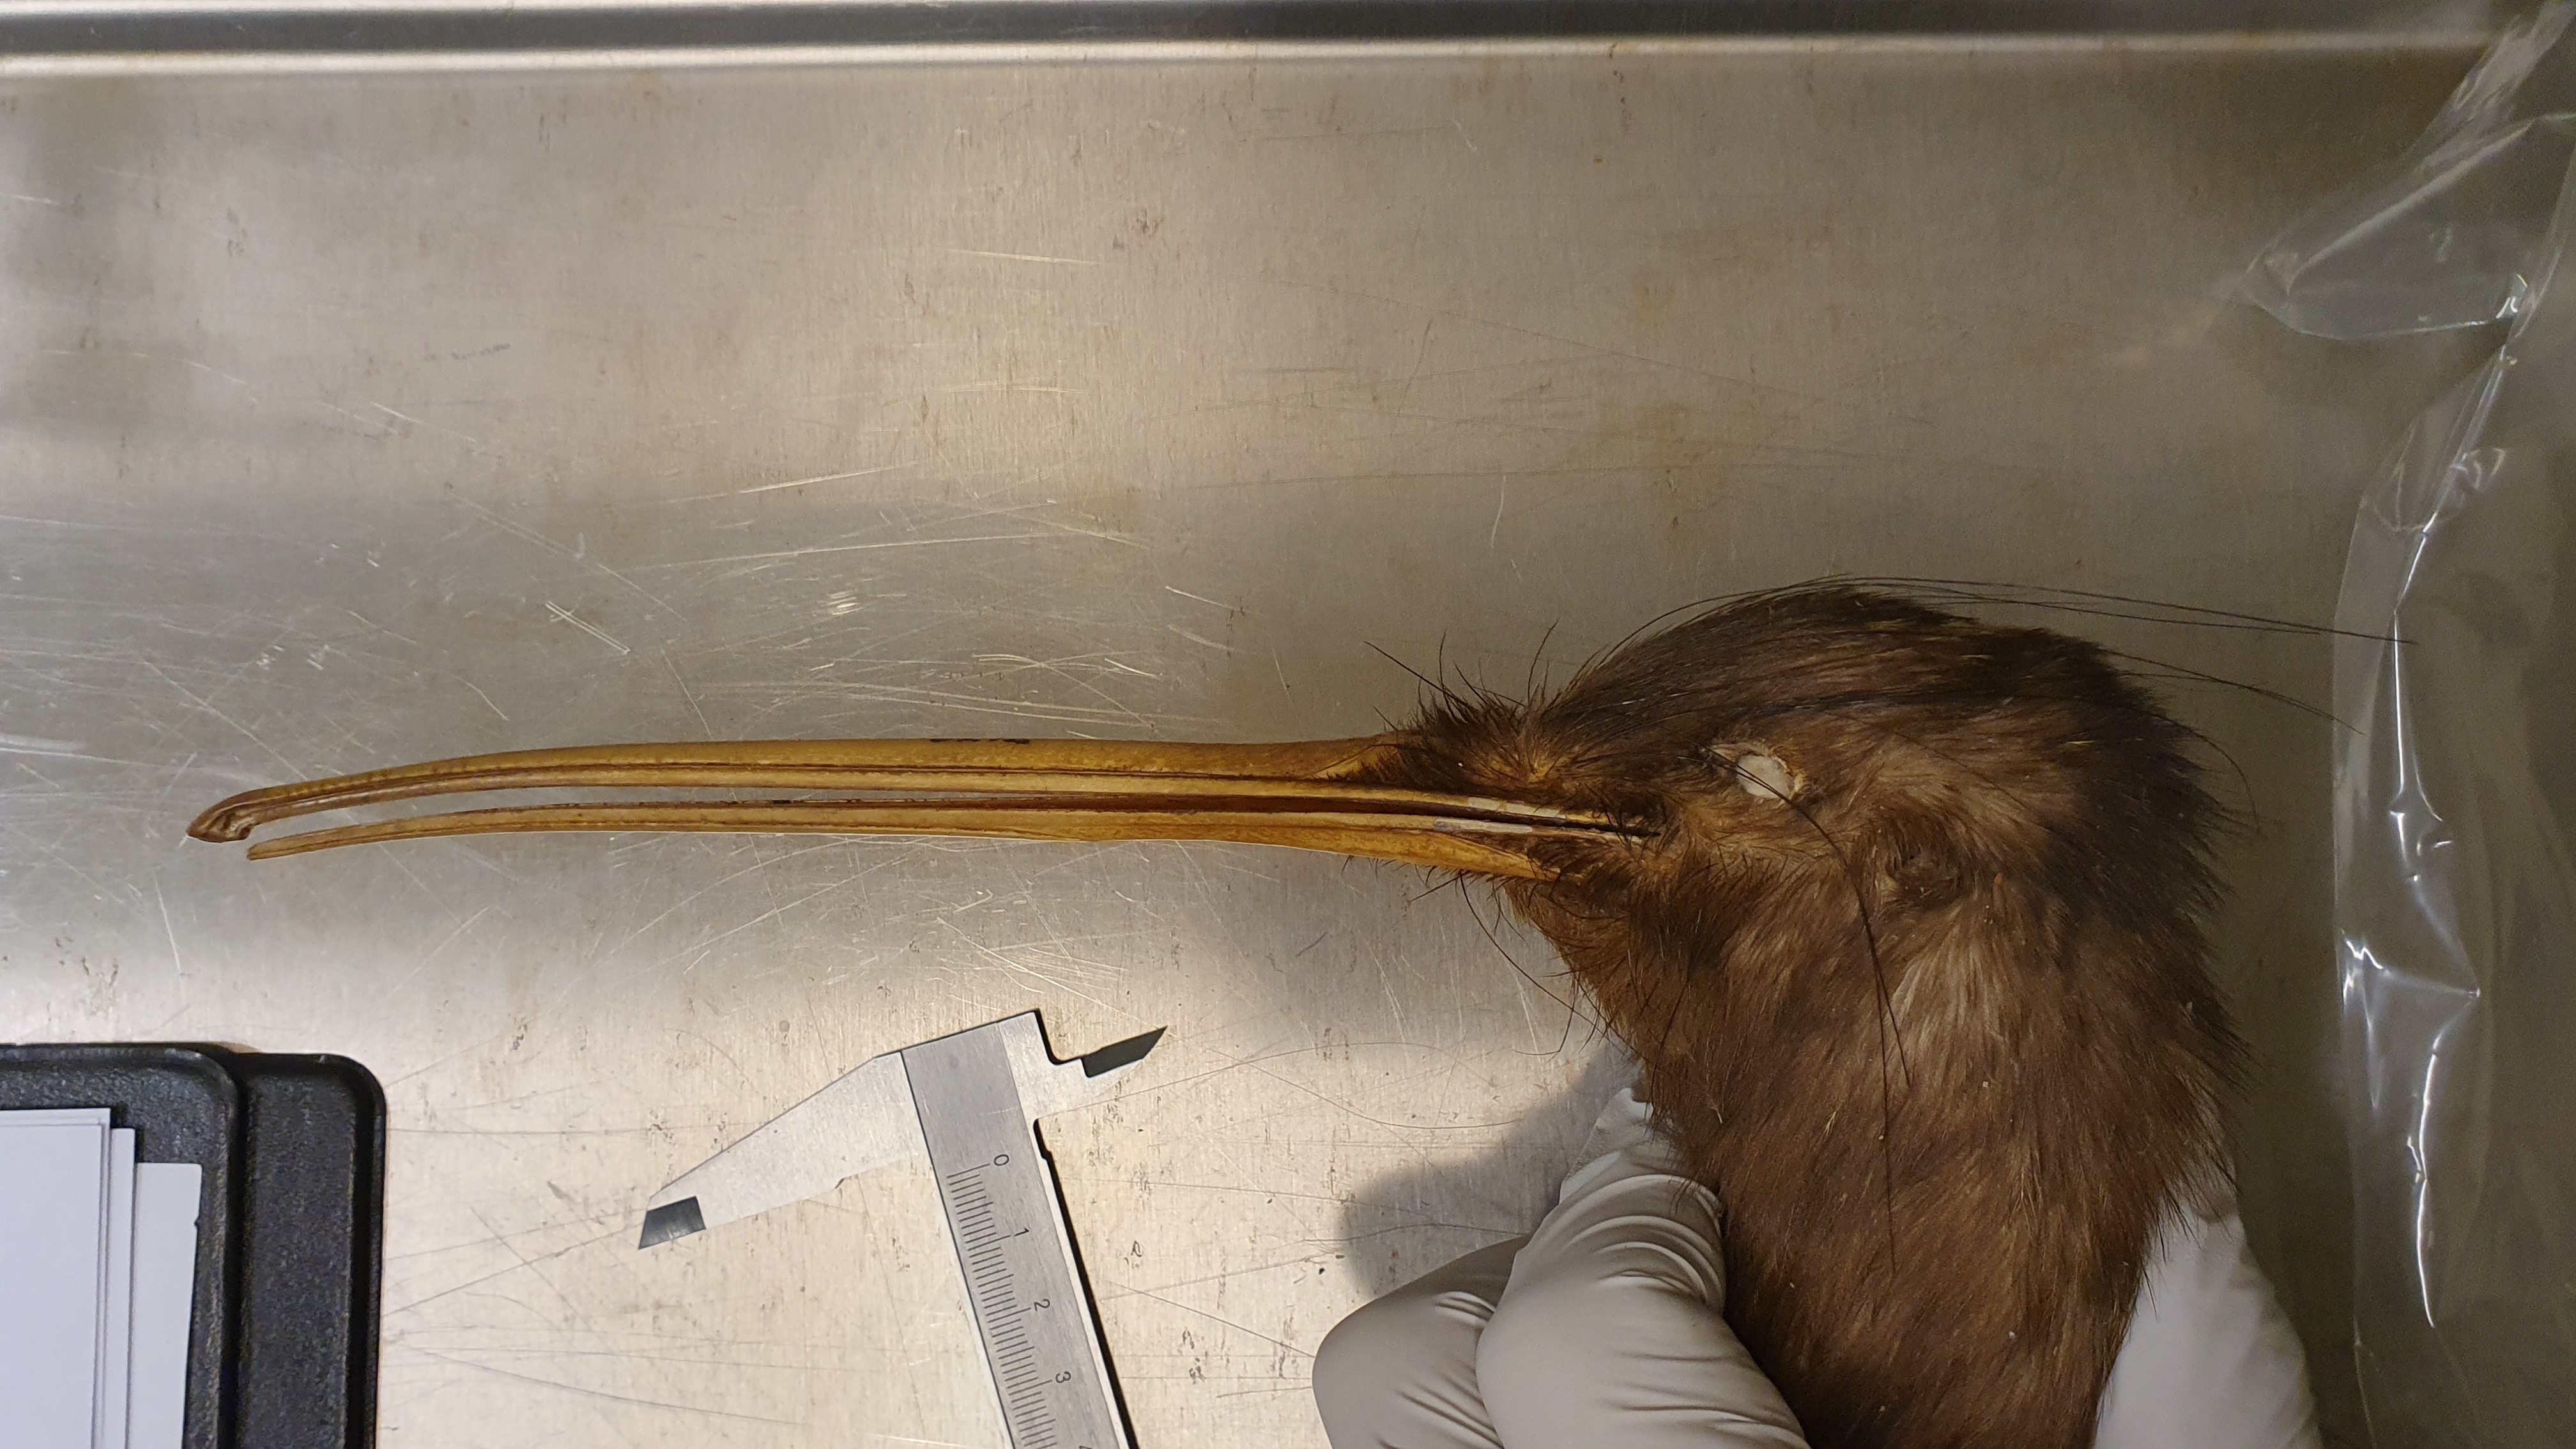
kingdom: Animalia
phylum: Chordata
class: Aves
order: Apterygiformes
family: Apterygidae
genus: Apteryx
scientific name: Apteryx mantelli
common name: North island brown kiwi
